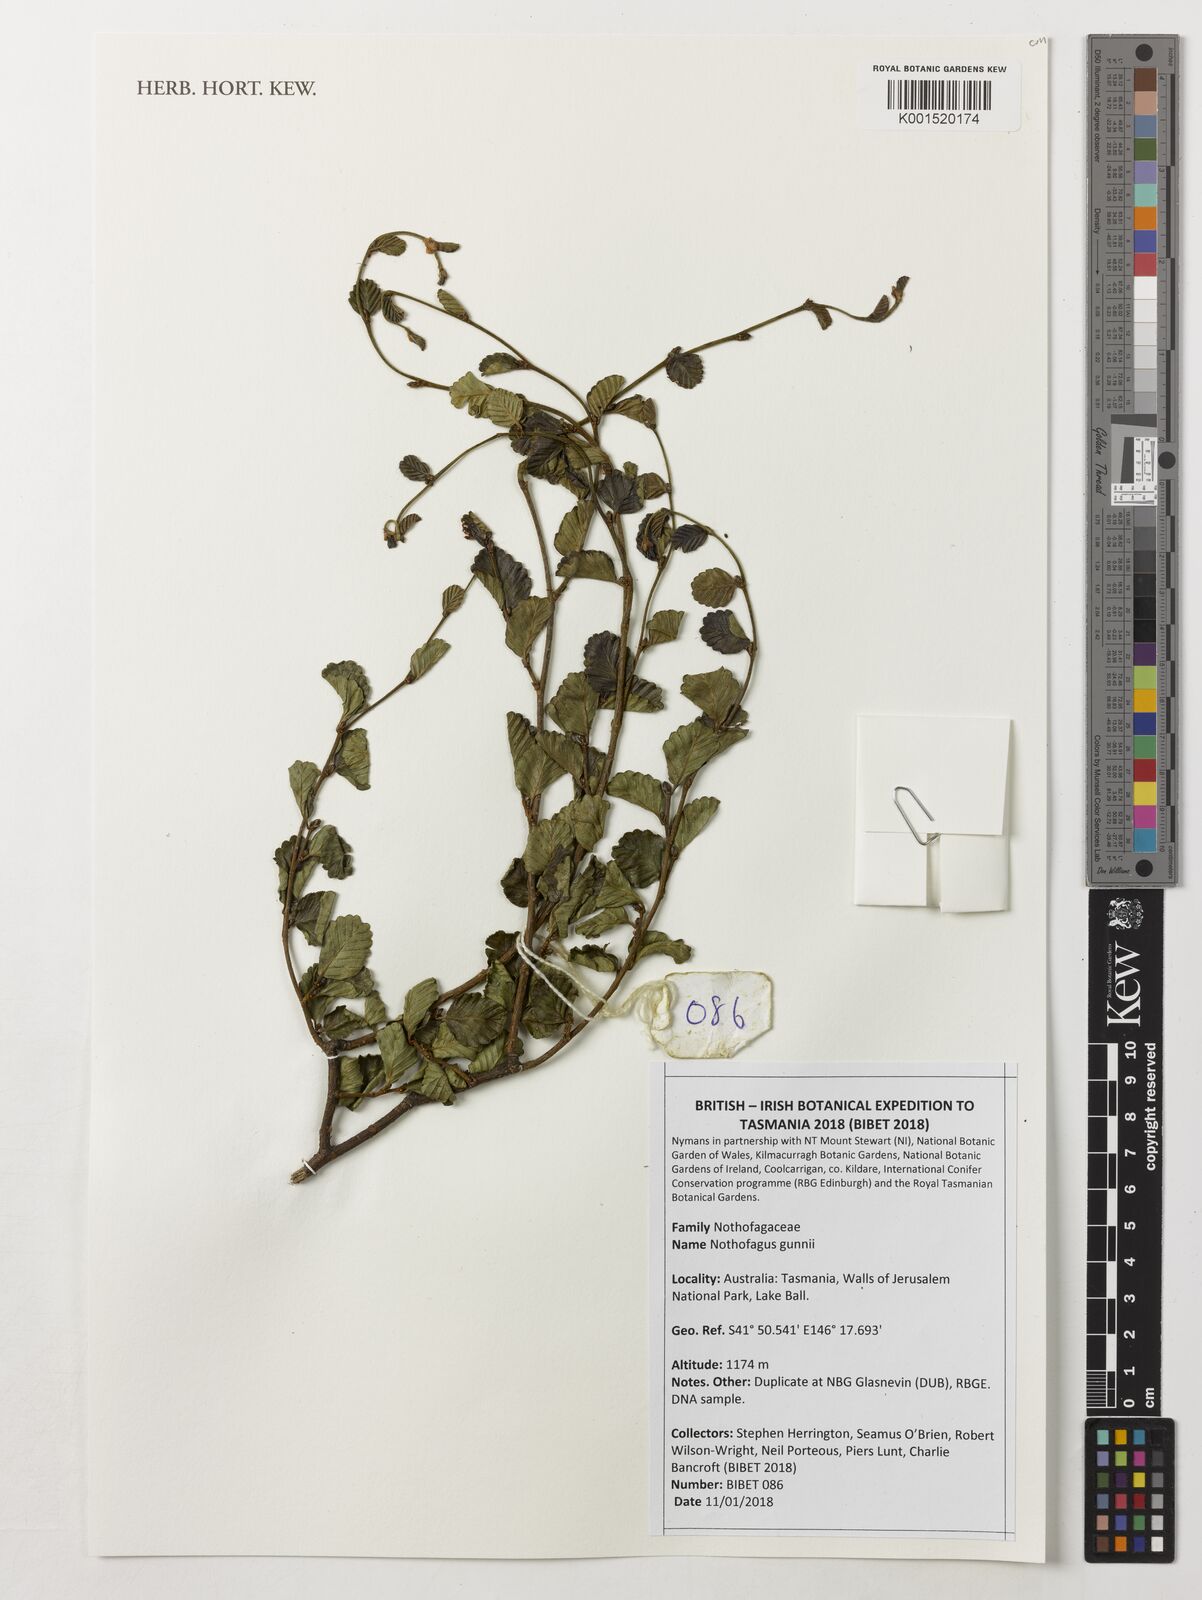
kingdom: Plantae
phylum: Tracheophyta
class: Magnoliopsida
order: Fagales
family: Nothofagaceae
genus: Nothofagus
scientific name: Nothofagus gunnii
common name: Tanglefoot
